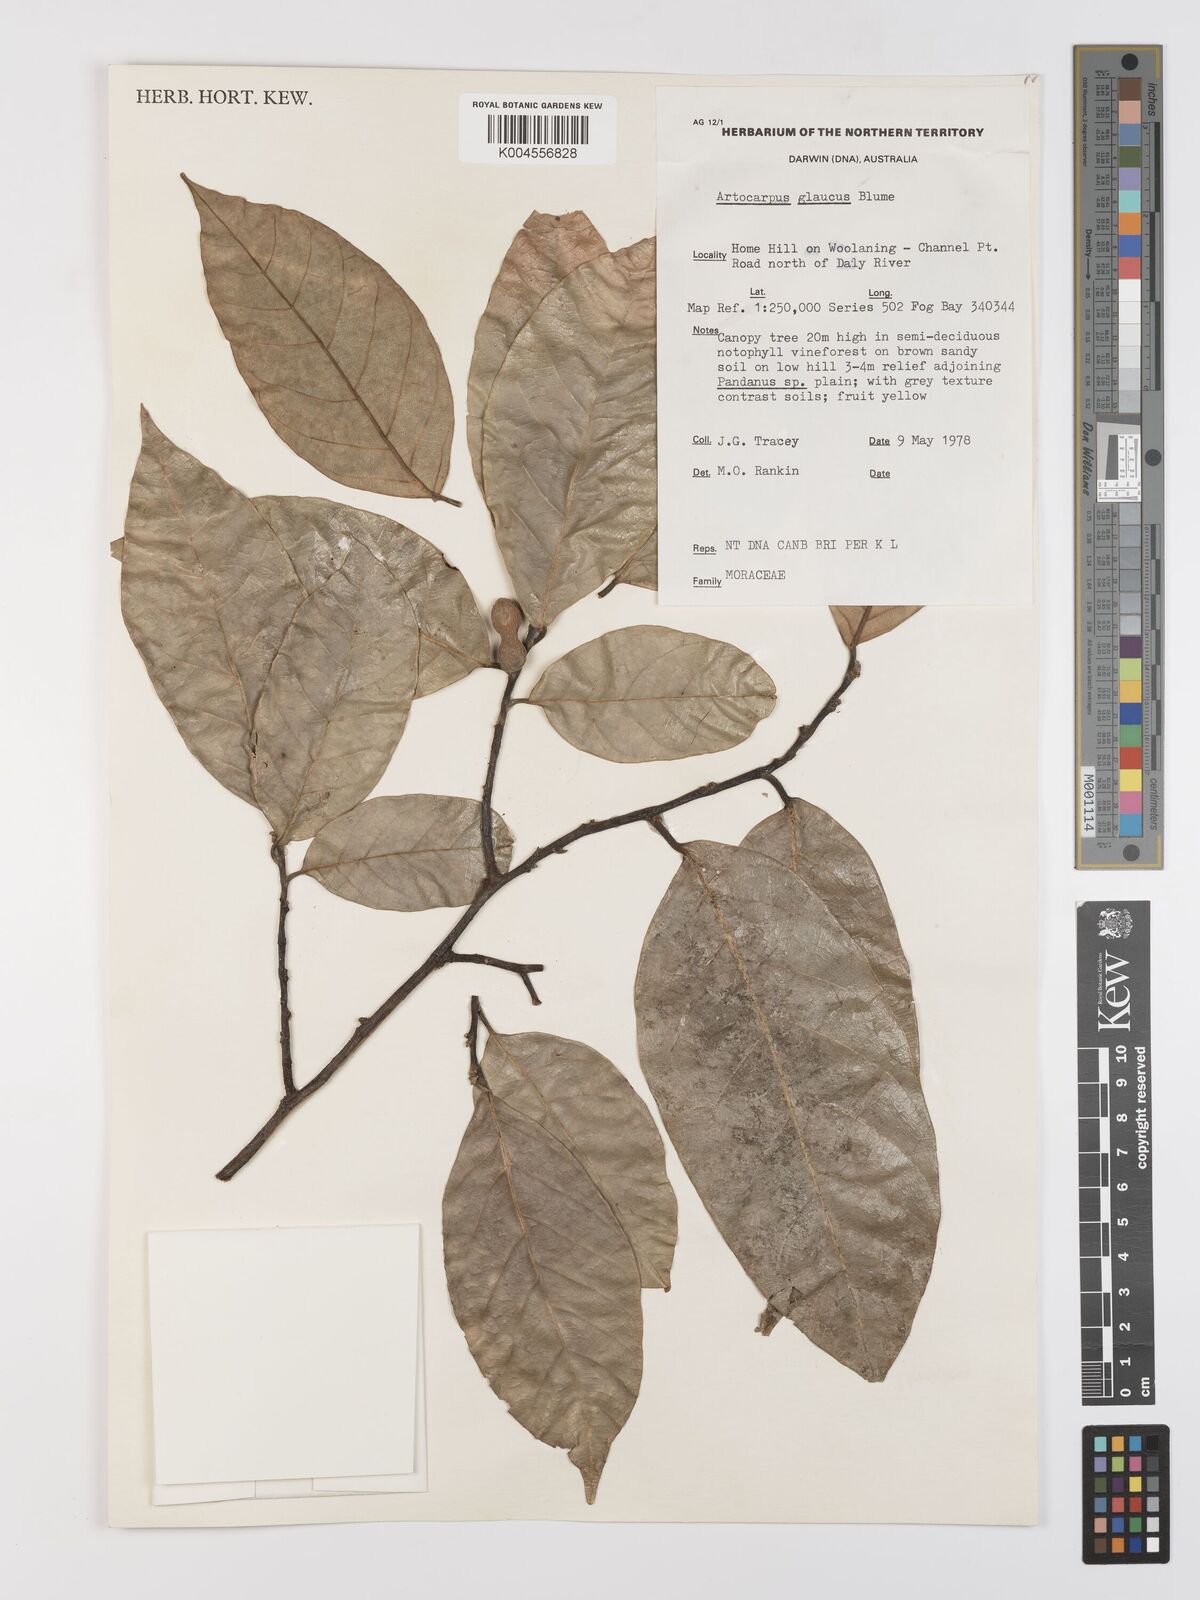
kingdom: Plantae
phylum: Tracheophyta
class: Magnoliopsida
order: Rosales
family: Moraceae
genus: Artocarpus
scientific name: Artocarpus glaucus
